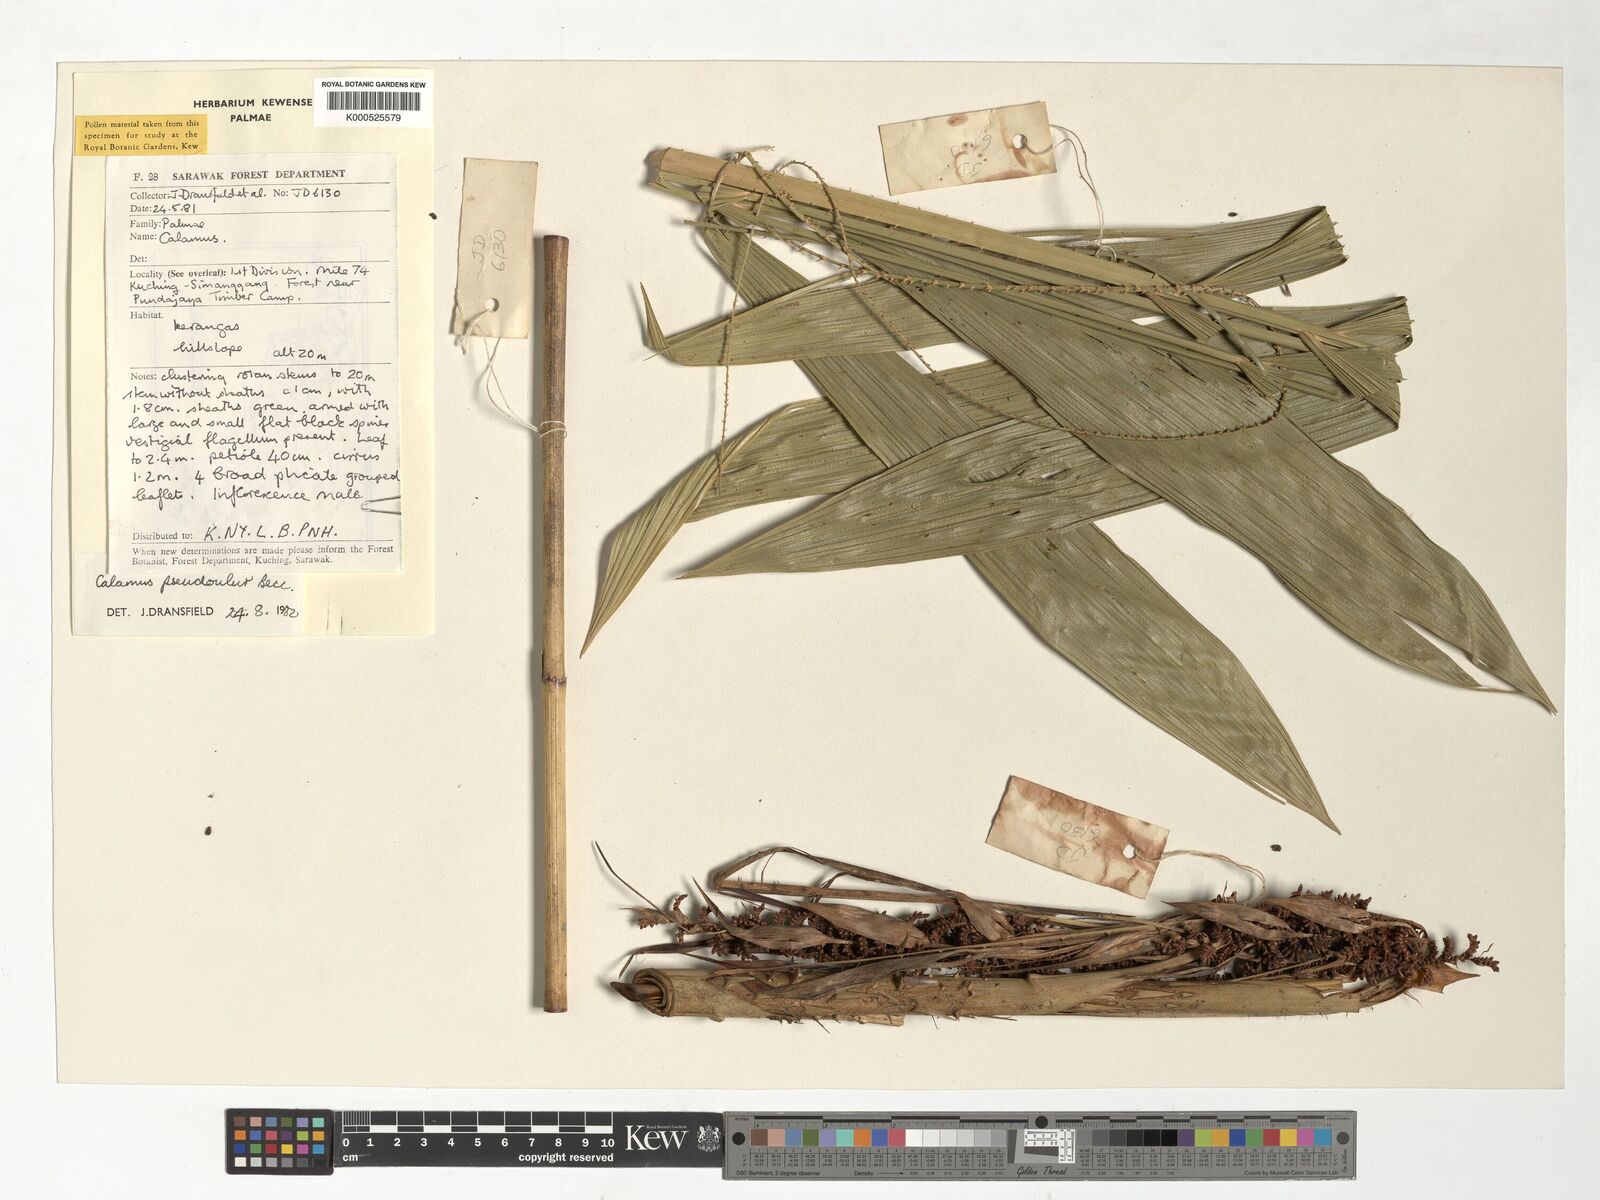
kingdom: Plantae
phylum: Tracheophyta
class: Liliopsida
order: Arecales
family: Arecaceae
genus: Calamus
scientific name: Calamus erioacanthus
